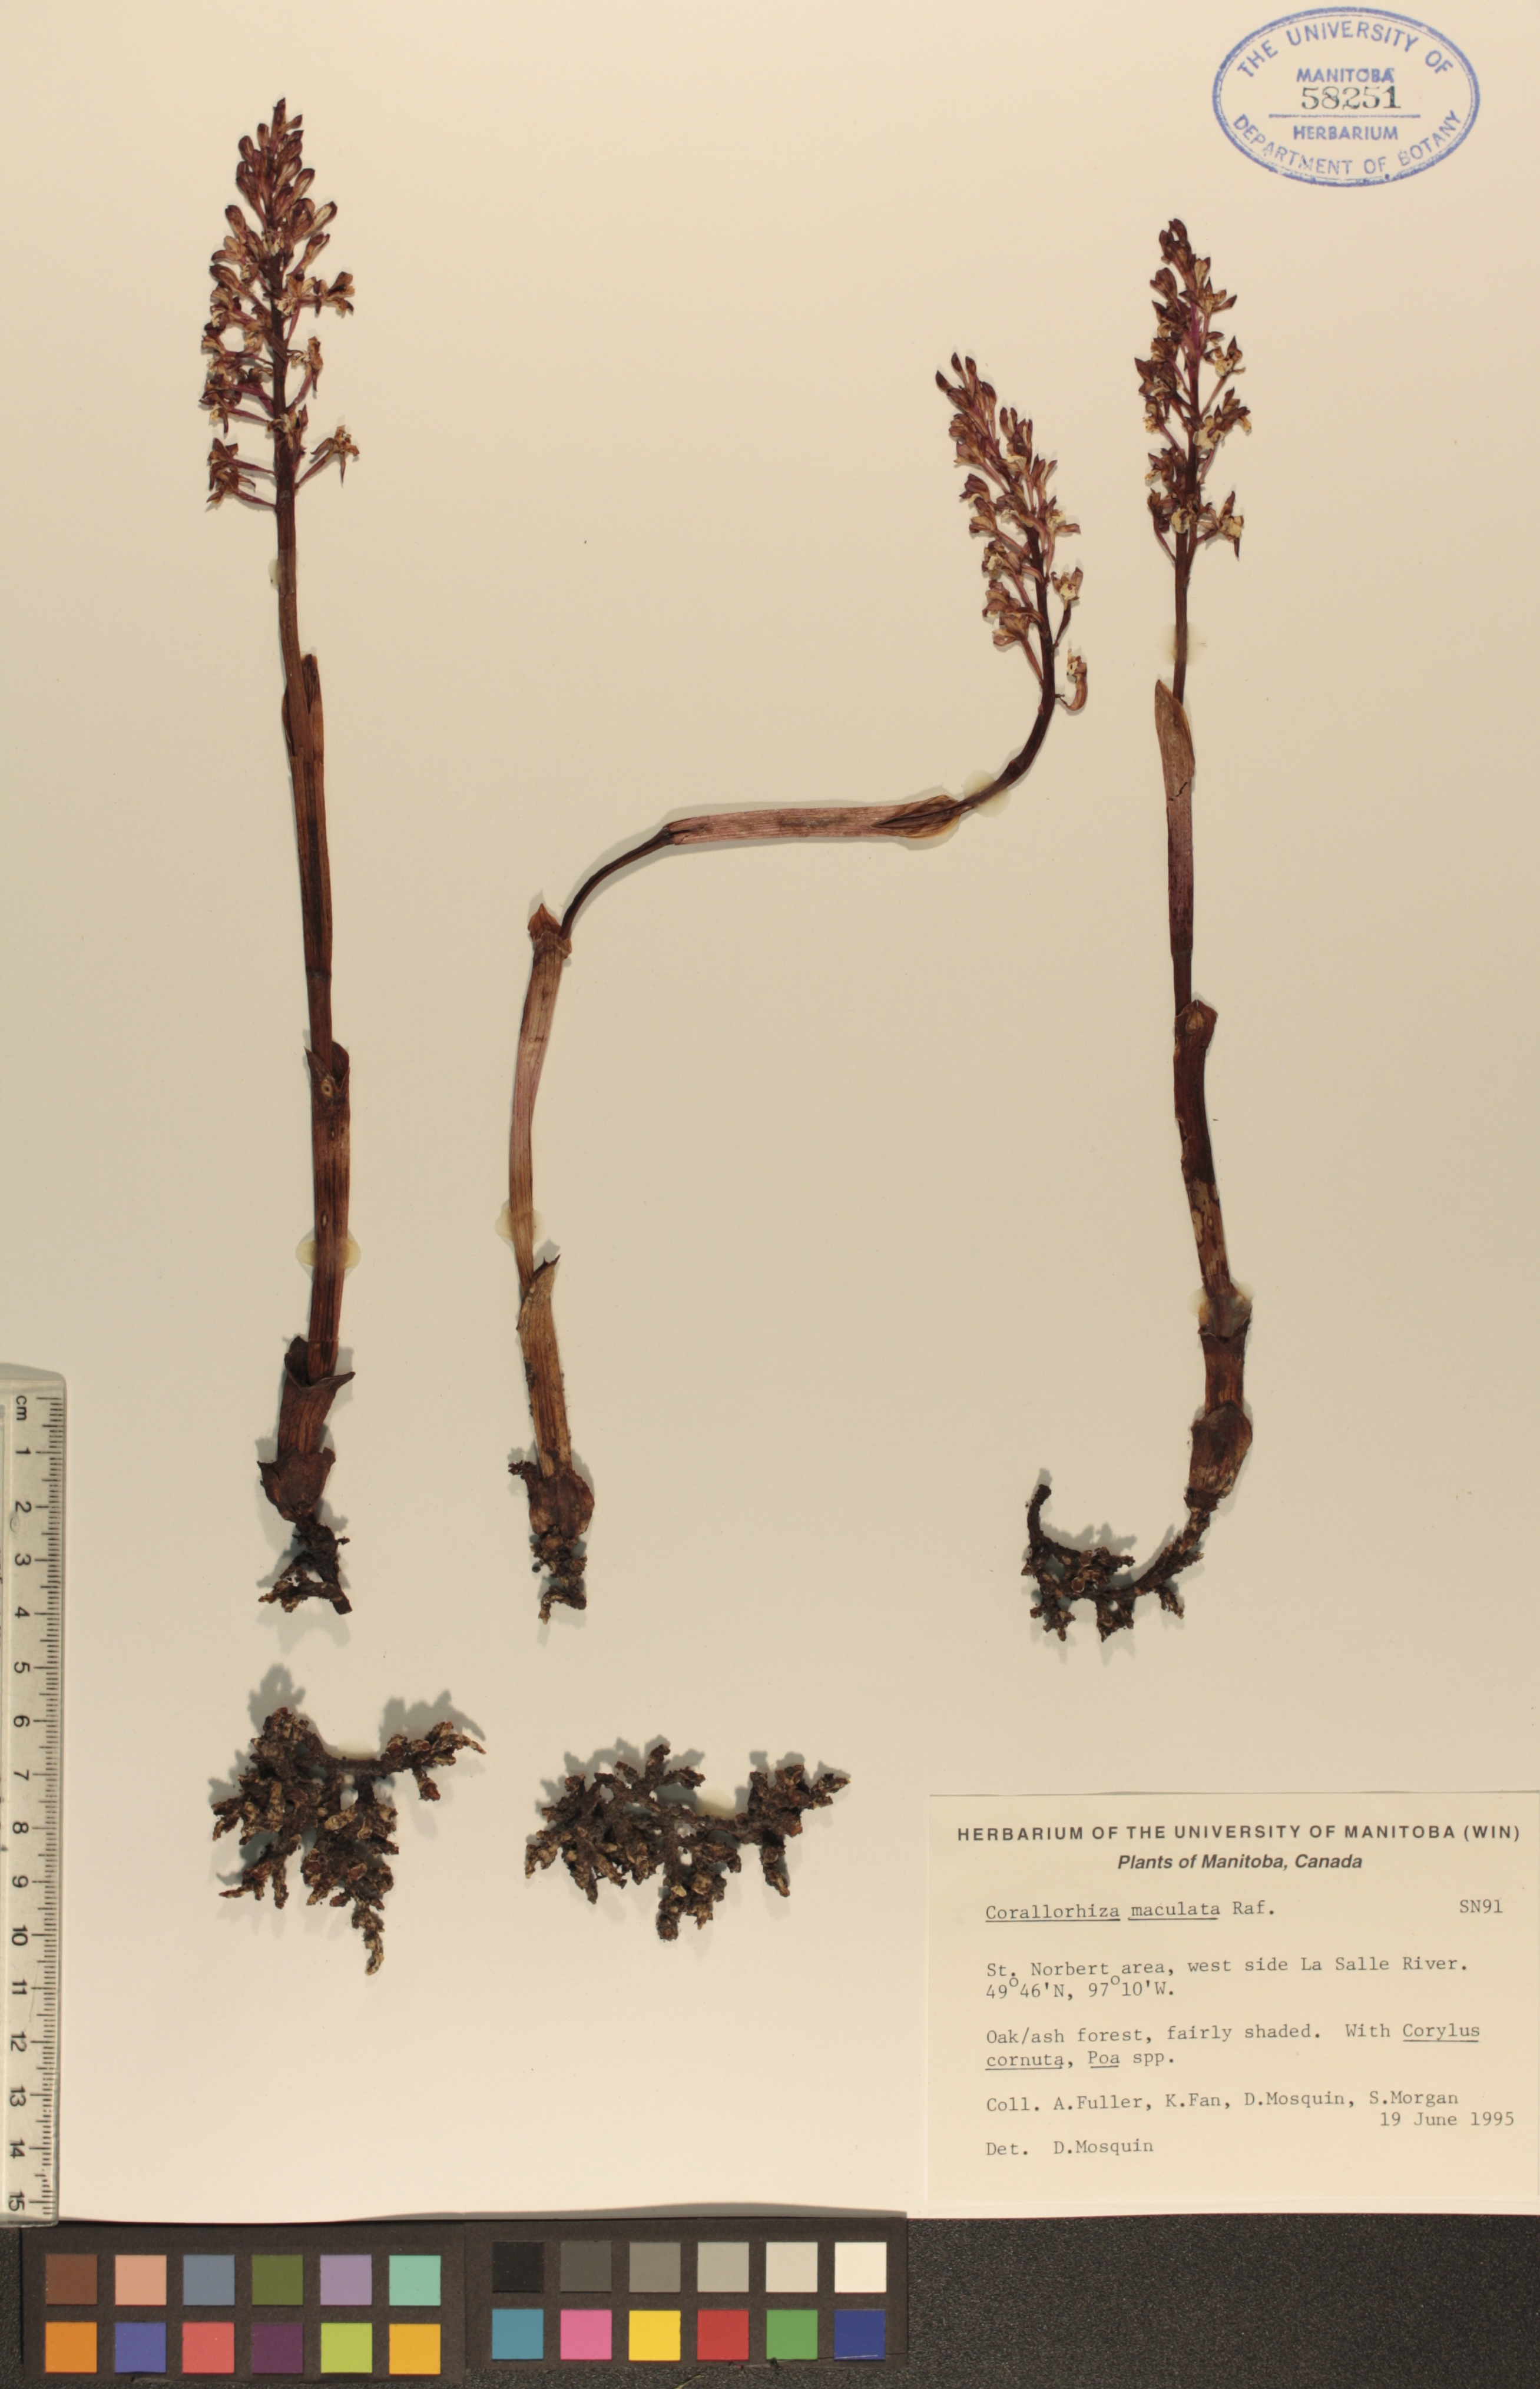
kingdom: Plantae
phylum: Tracheophyta
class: Liliopsida
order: Asparagales
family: Orchidaceae
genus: Corallorhiza
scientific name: Corallorhiza maculata
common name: Spotted coralroot
